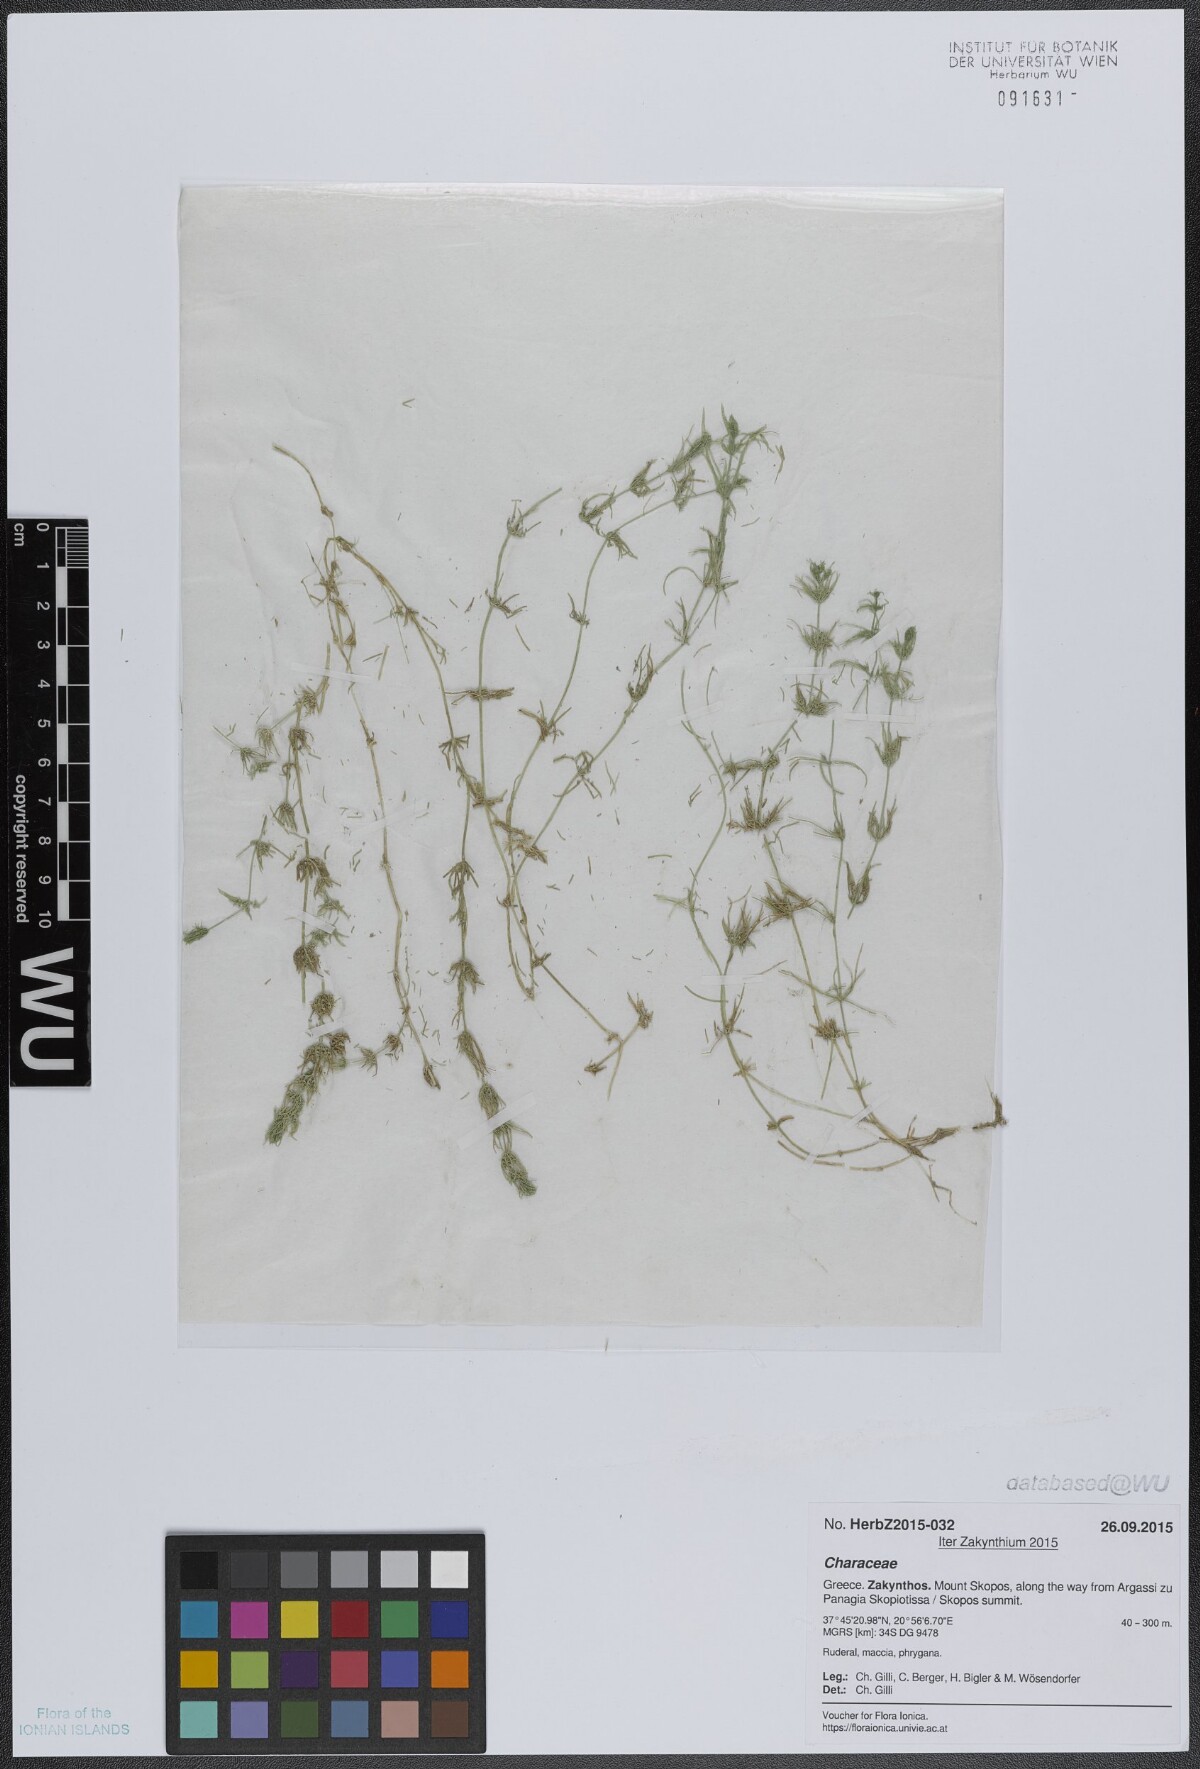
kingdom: Plantae
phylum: Charophyta
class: Charophyceae
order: Charales
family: Characeae
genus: Chara
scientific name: Chara vulgaris
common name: Common stonewort
